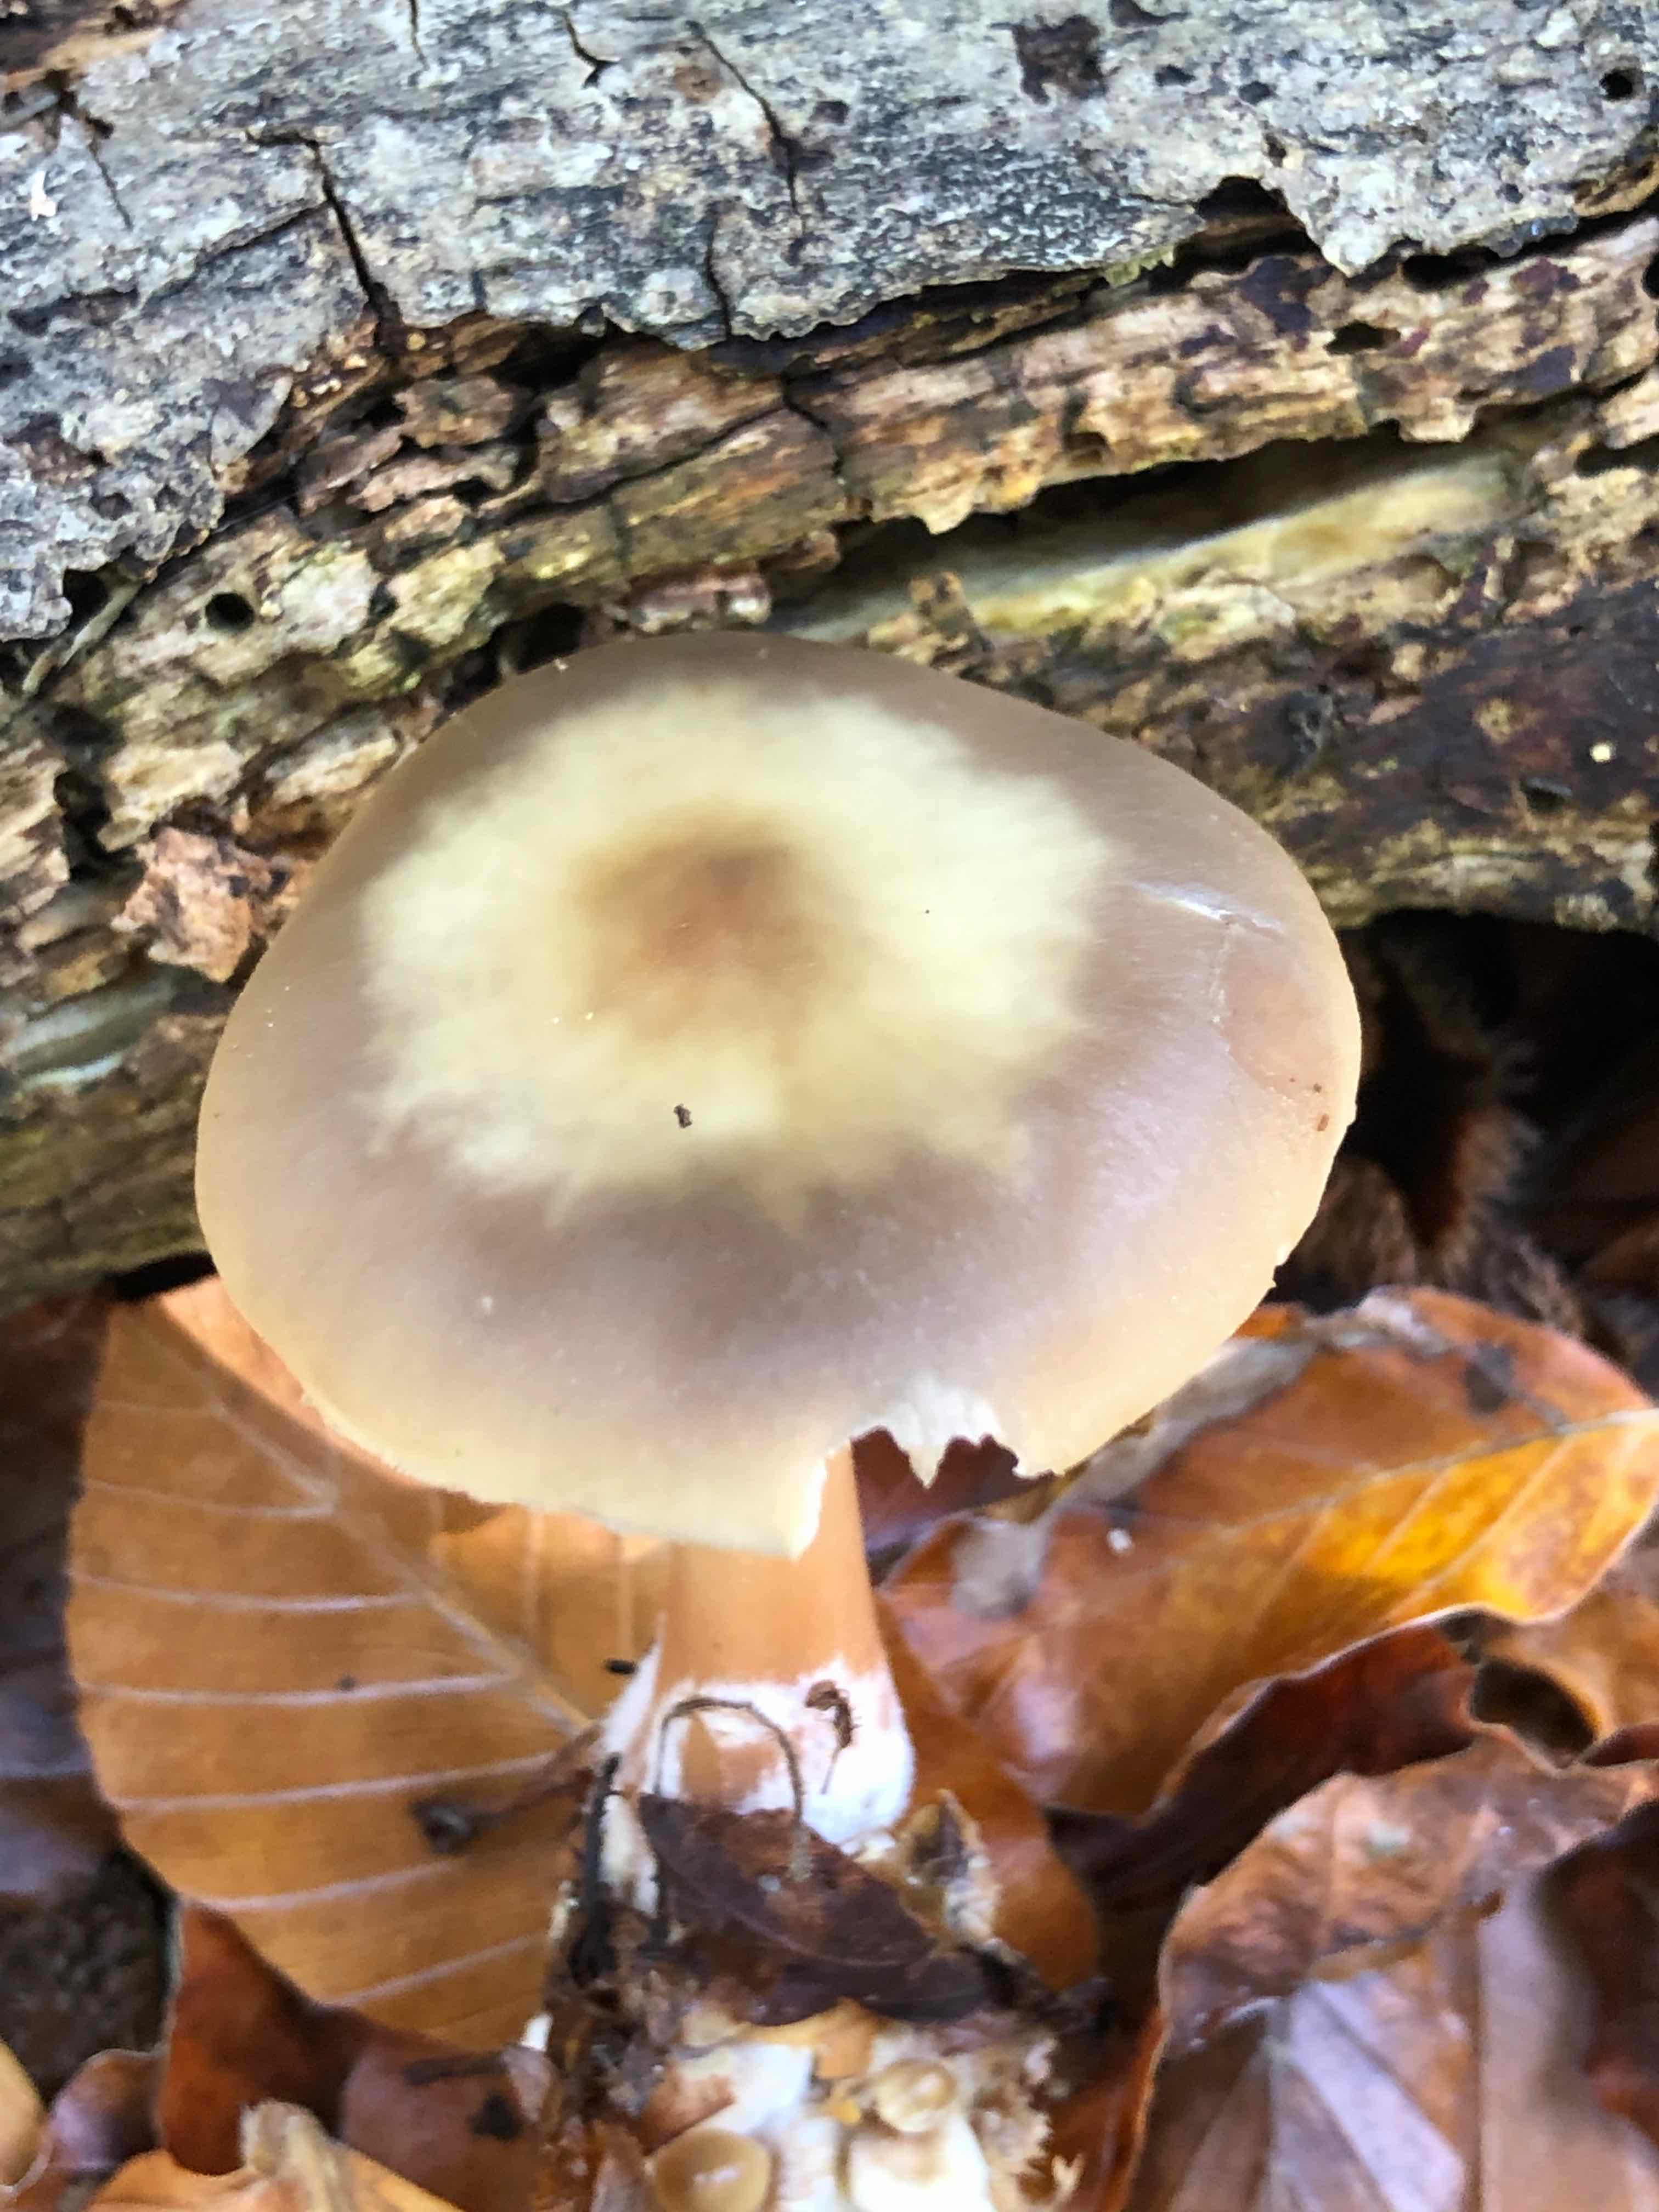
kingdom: Fungi
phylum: Basidiomycota
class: Agaricomycetes
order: Agaricales
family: Omphalotaceae
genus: Rhodocollybia
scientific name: Rhodocollybia asema
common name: horngrå fladhat
